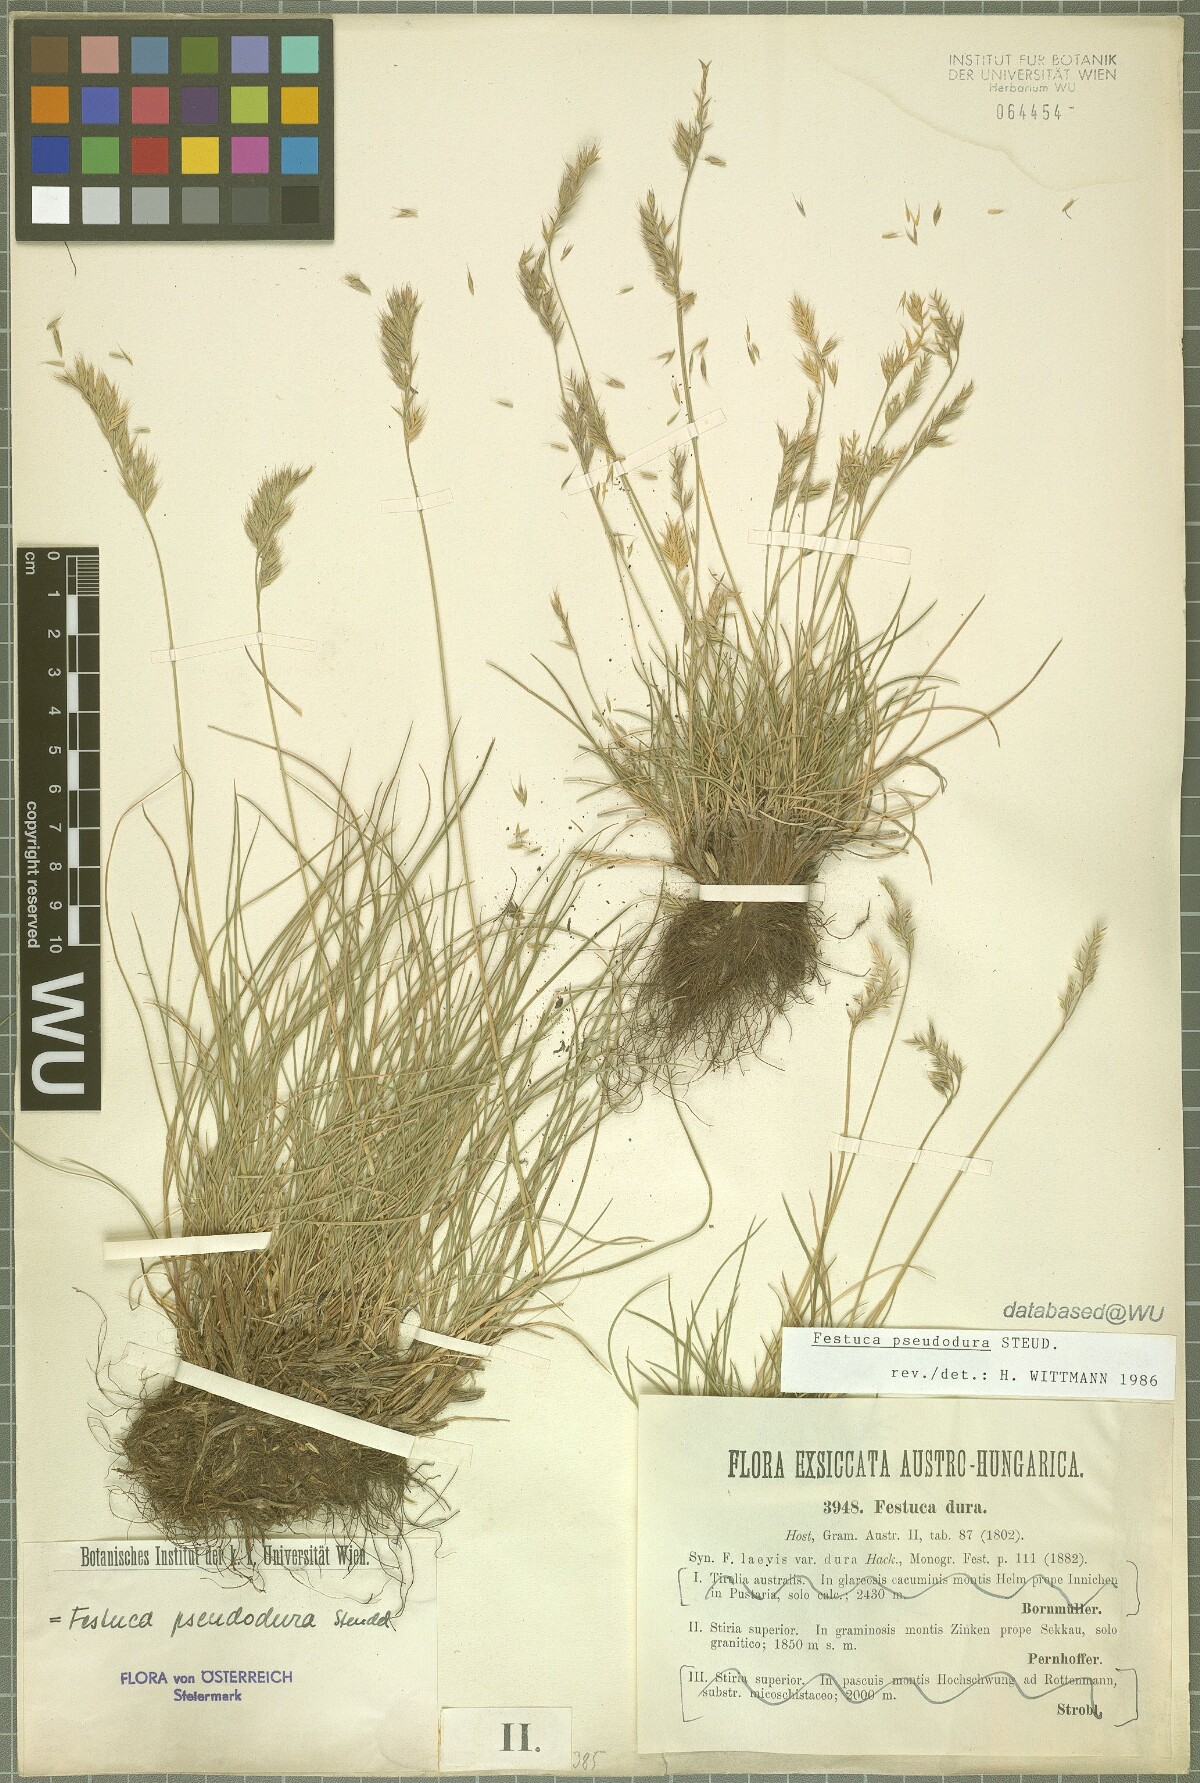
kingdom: Plantae
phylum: Tracheophyta
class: Liliopsida
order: Poales
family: Poaceae
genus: Festuca
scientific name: Festuca pseudodura
